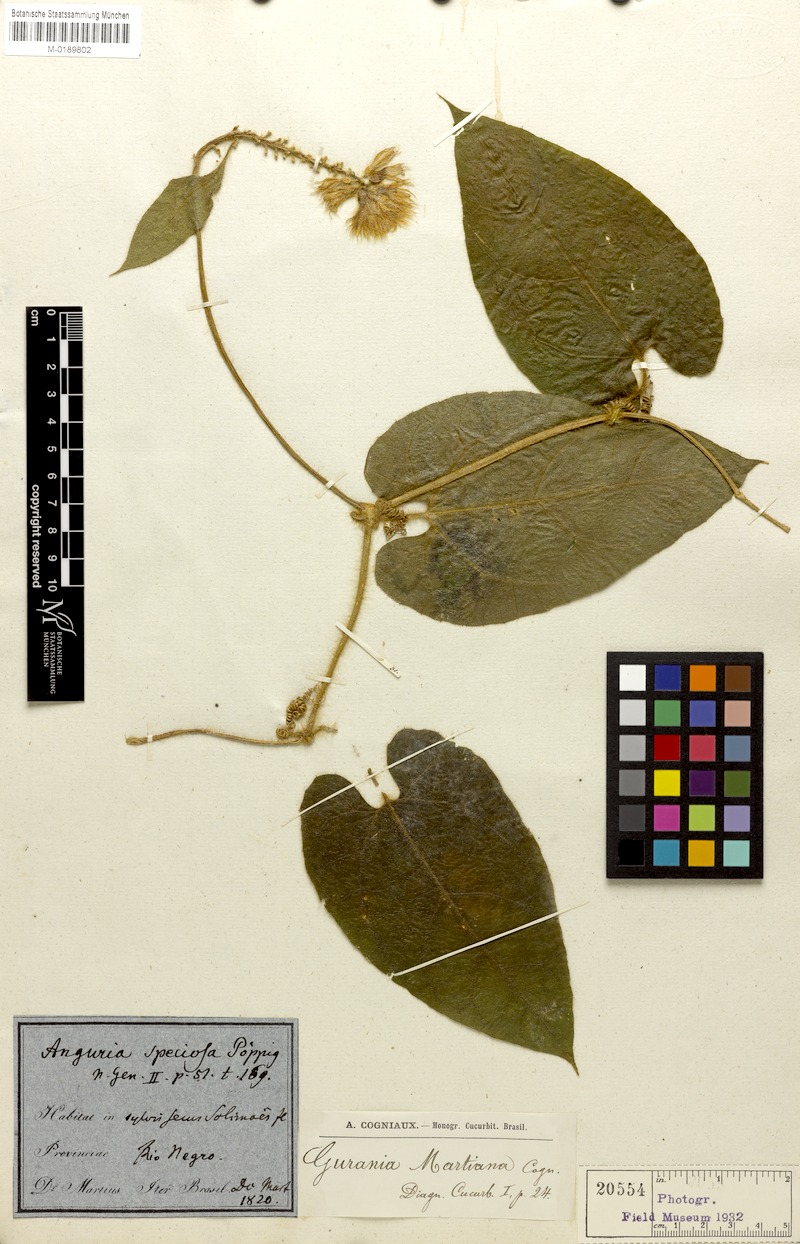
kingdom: Plantae
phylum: Tracheophyta
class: Magnoliopsida
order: Cucurbitales
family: Cucurbitaceae
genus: Gurania
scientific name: Gurania eriantha
